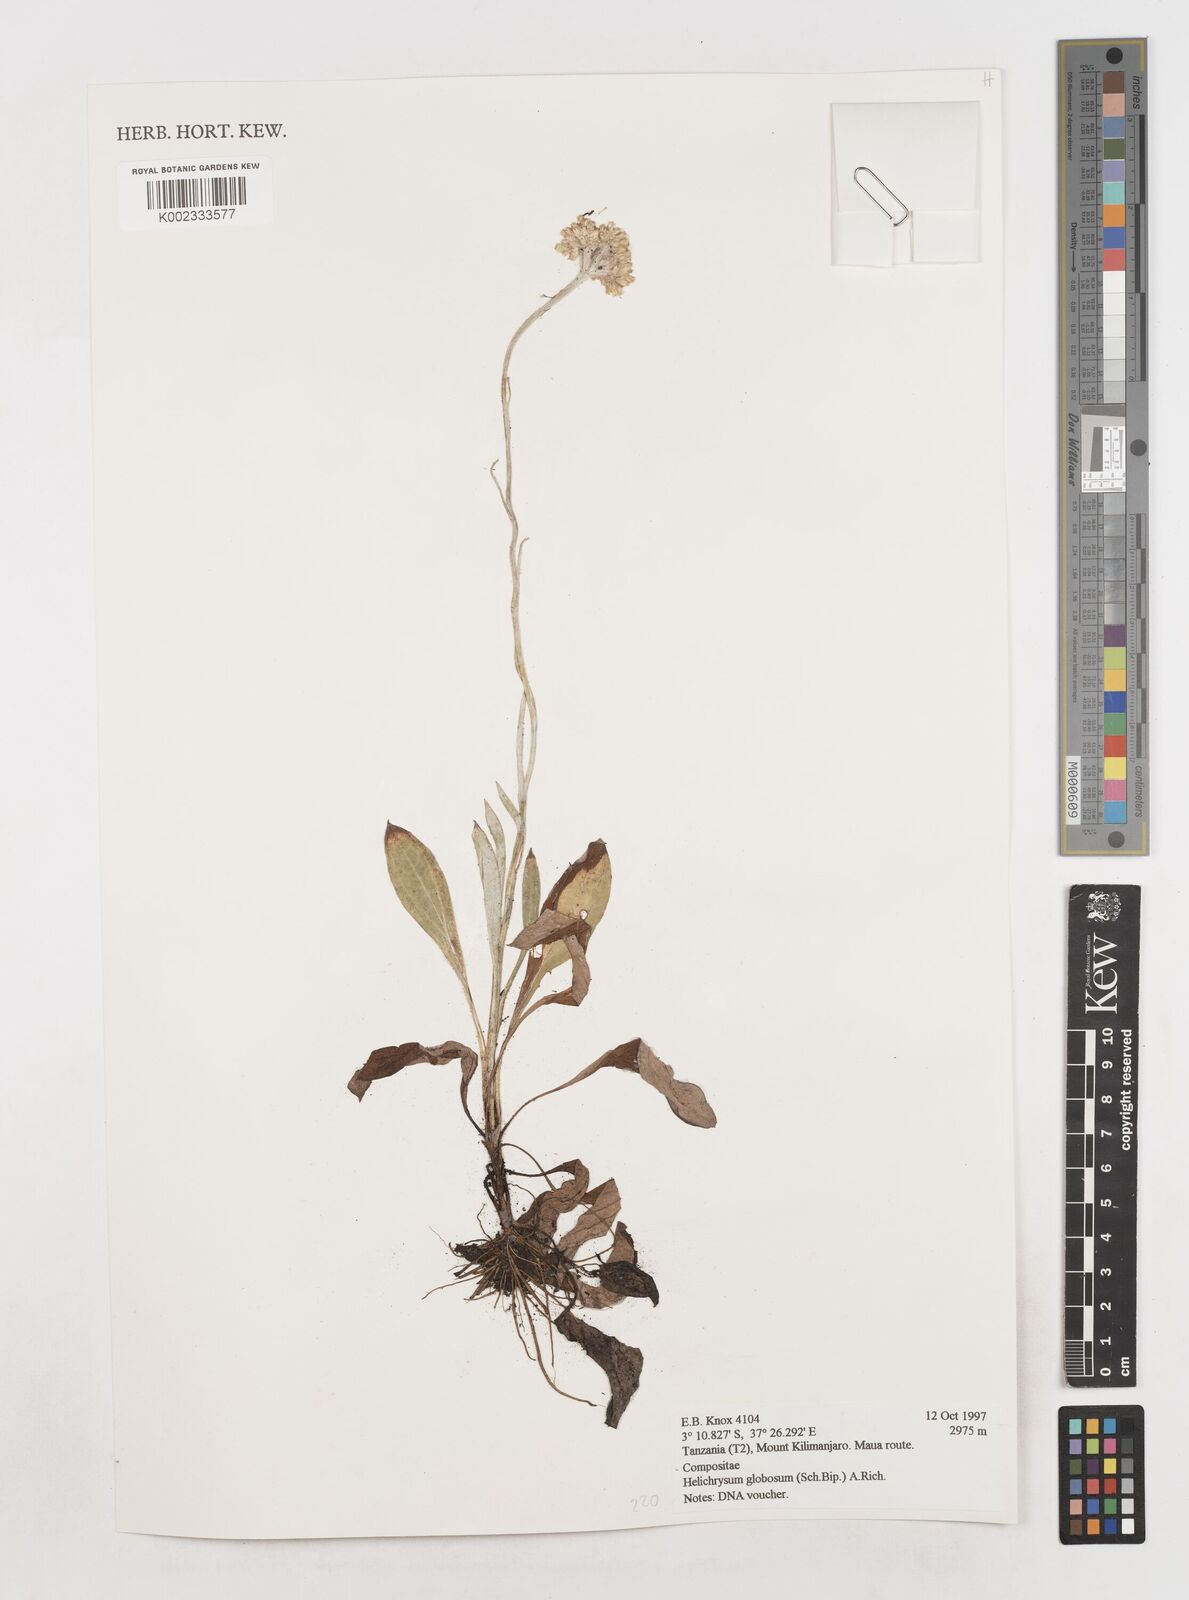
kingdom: Plantae
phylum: Tracheophyta
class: Magnoliopsida
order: Asterales
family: Asteraceae
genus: Helichrysum
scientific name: Helichrysum globosum
